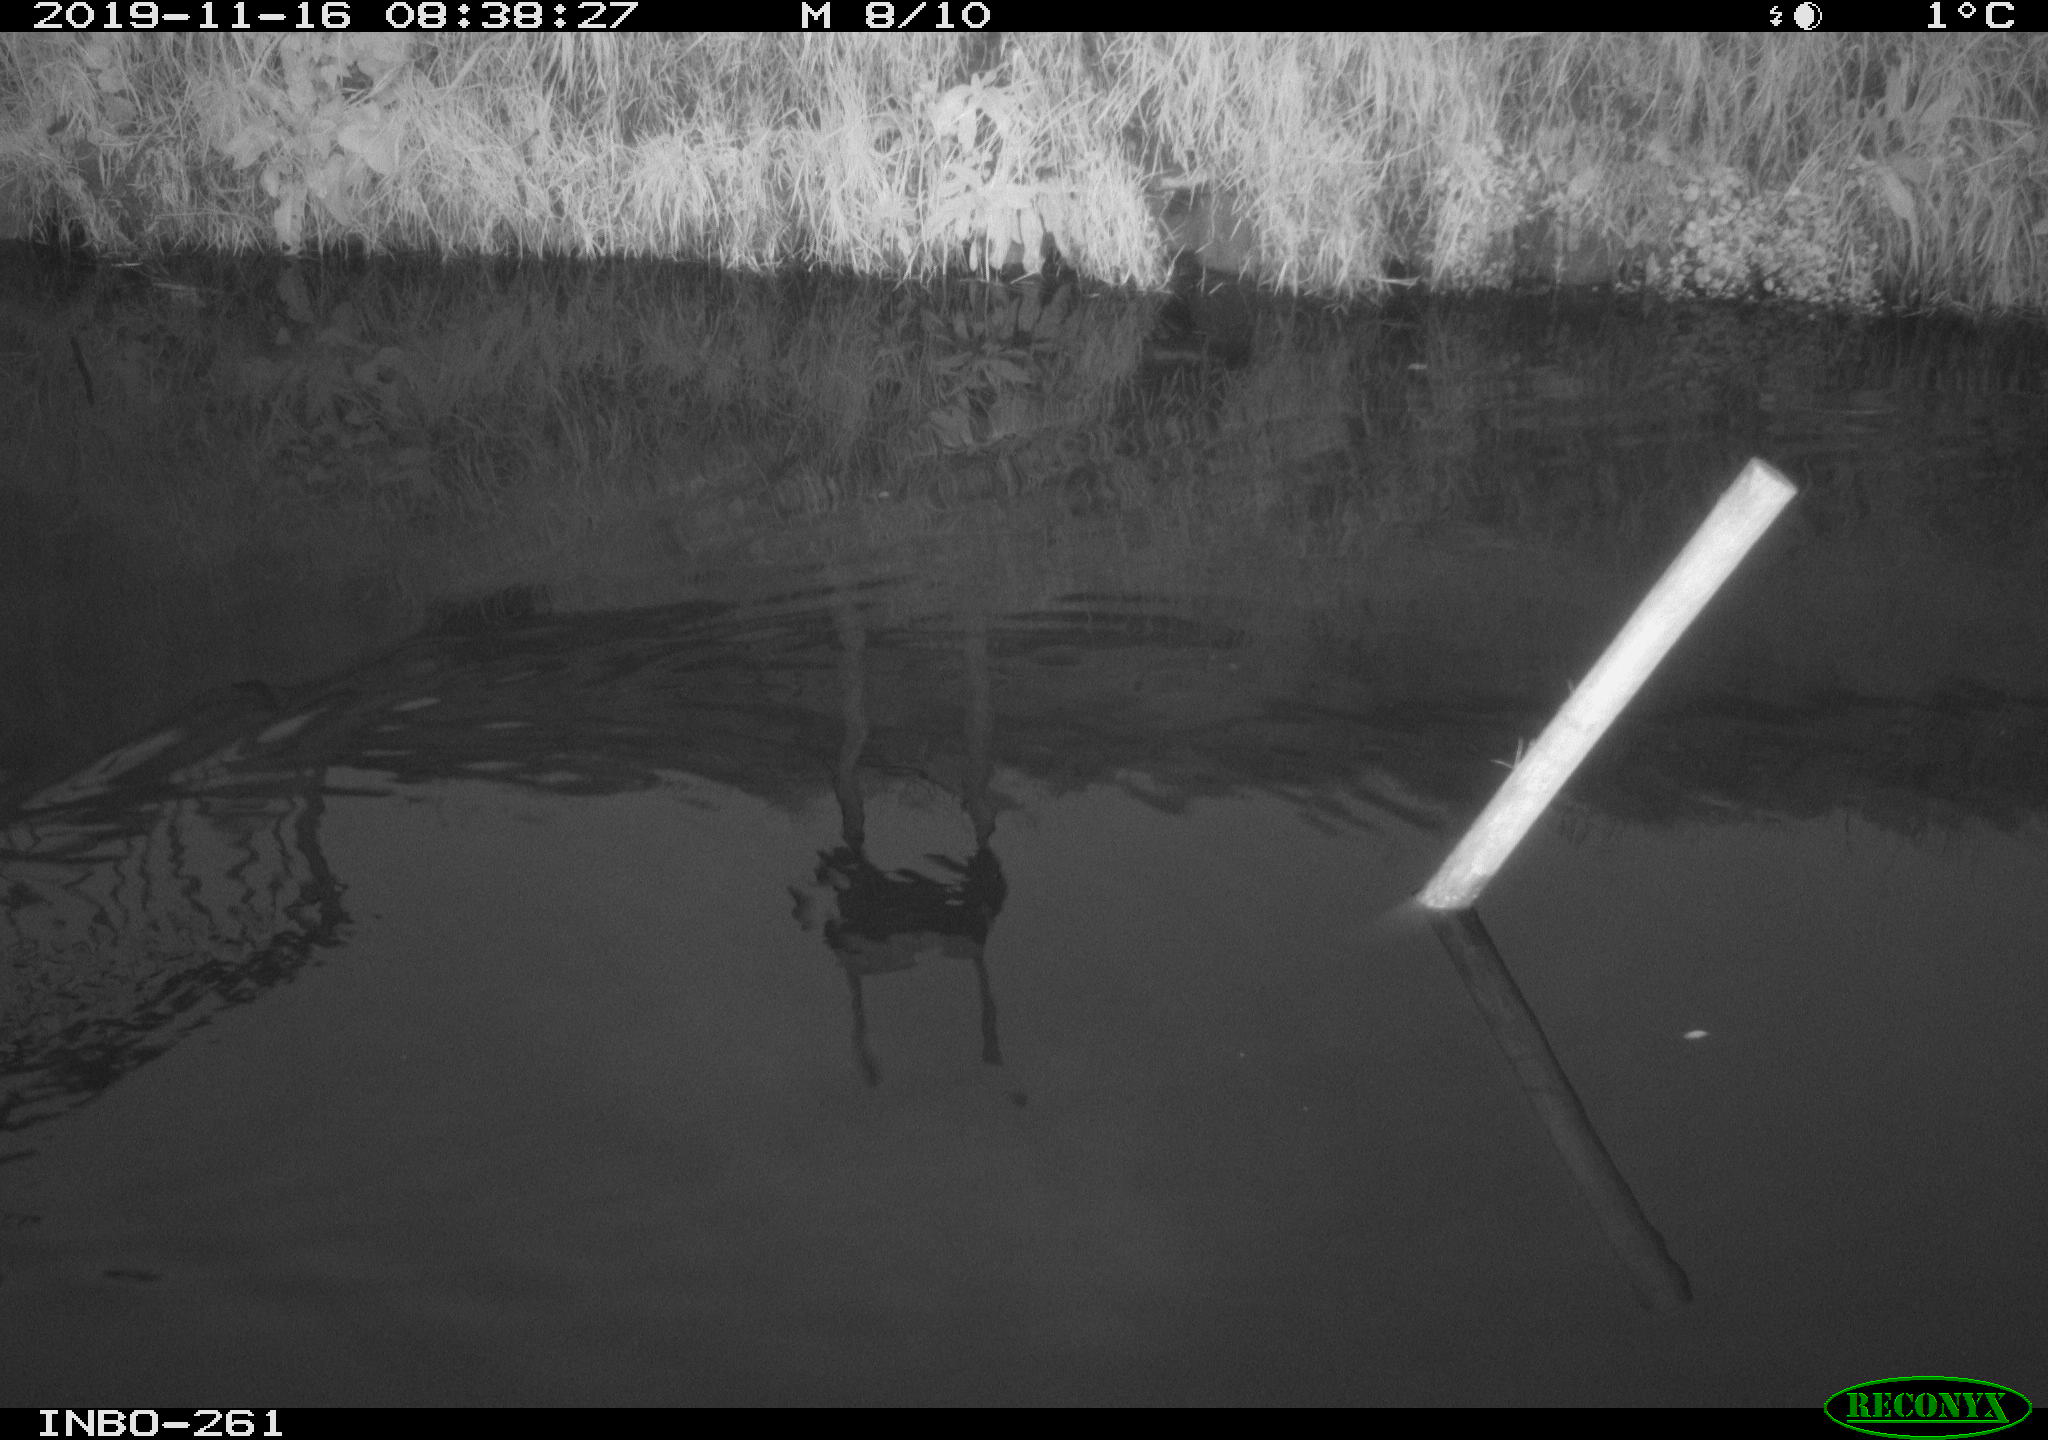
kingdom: Animalia
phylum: Chordata
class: Aves
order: Gruiformes
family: Rallidae
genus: Gallinula
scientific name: Gallinula chloropus
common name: Common moorhen
